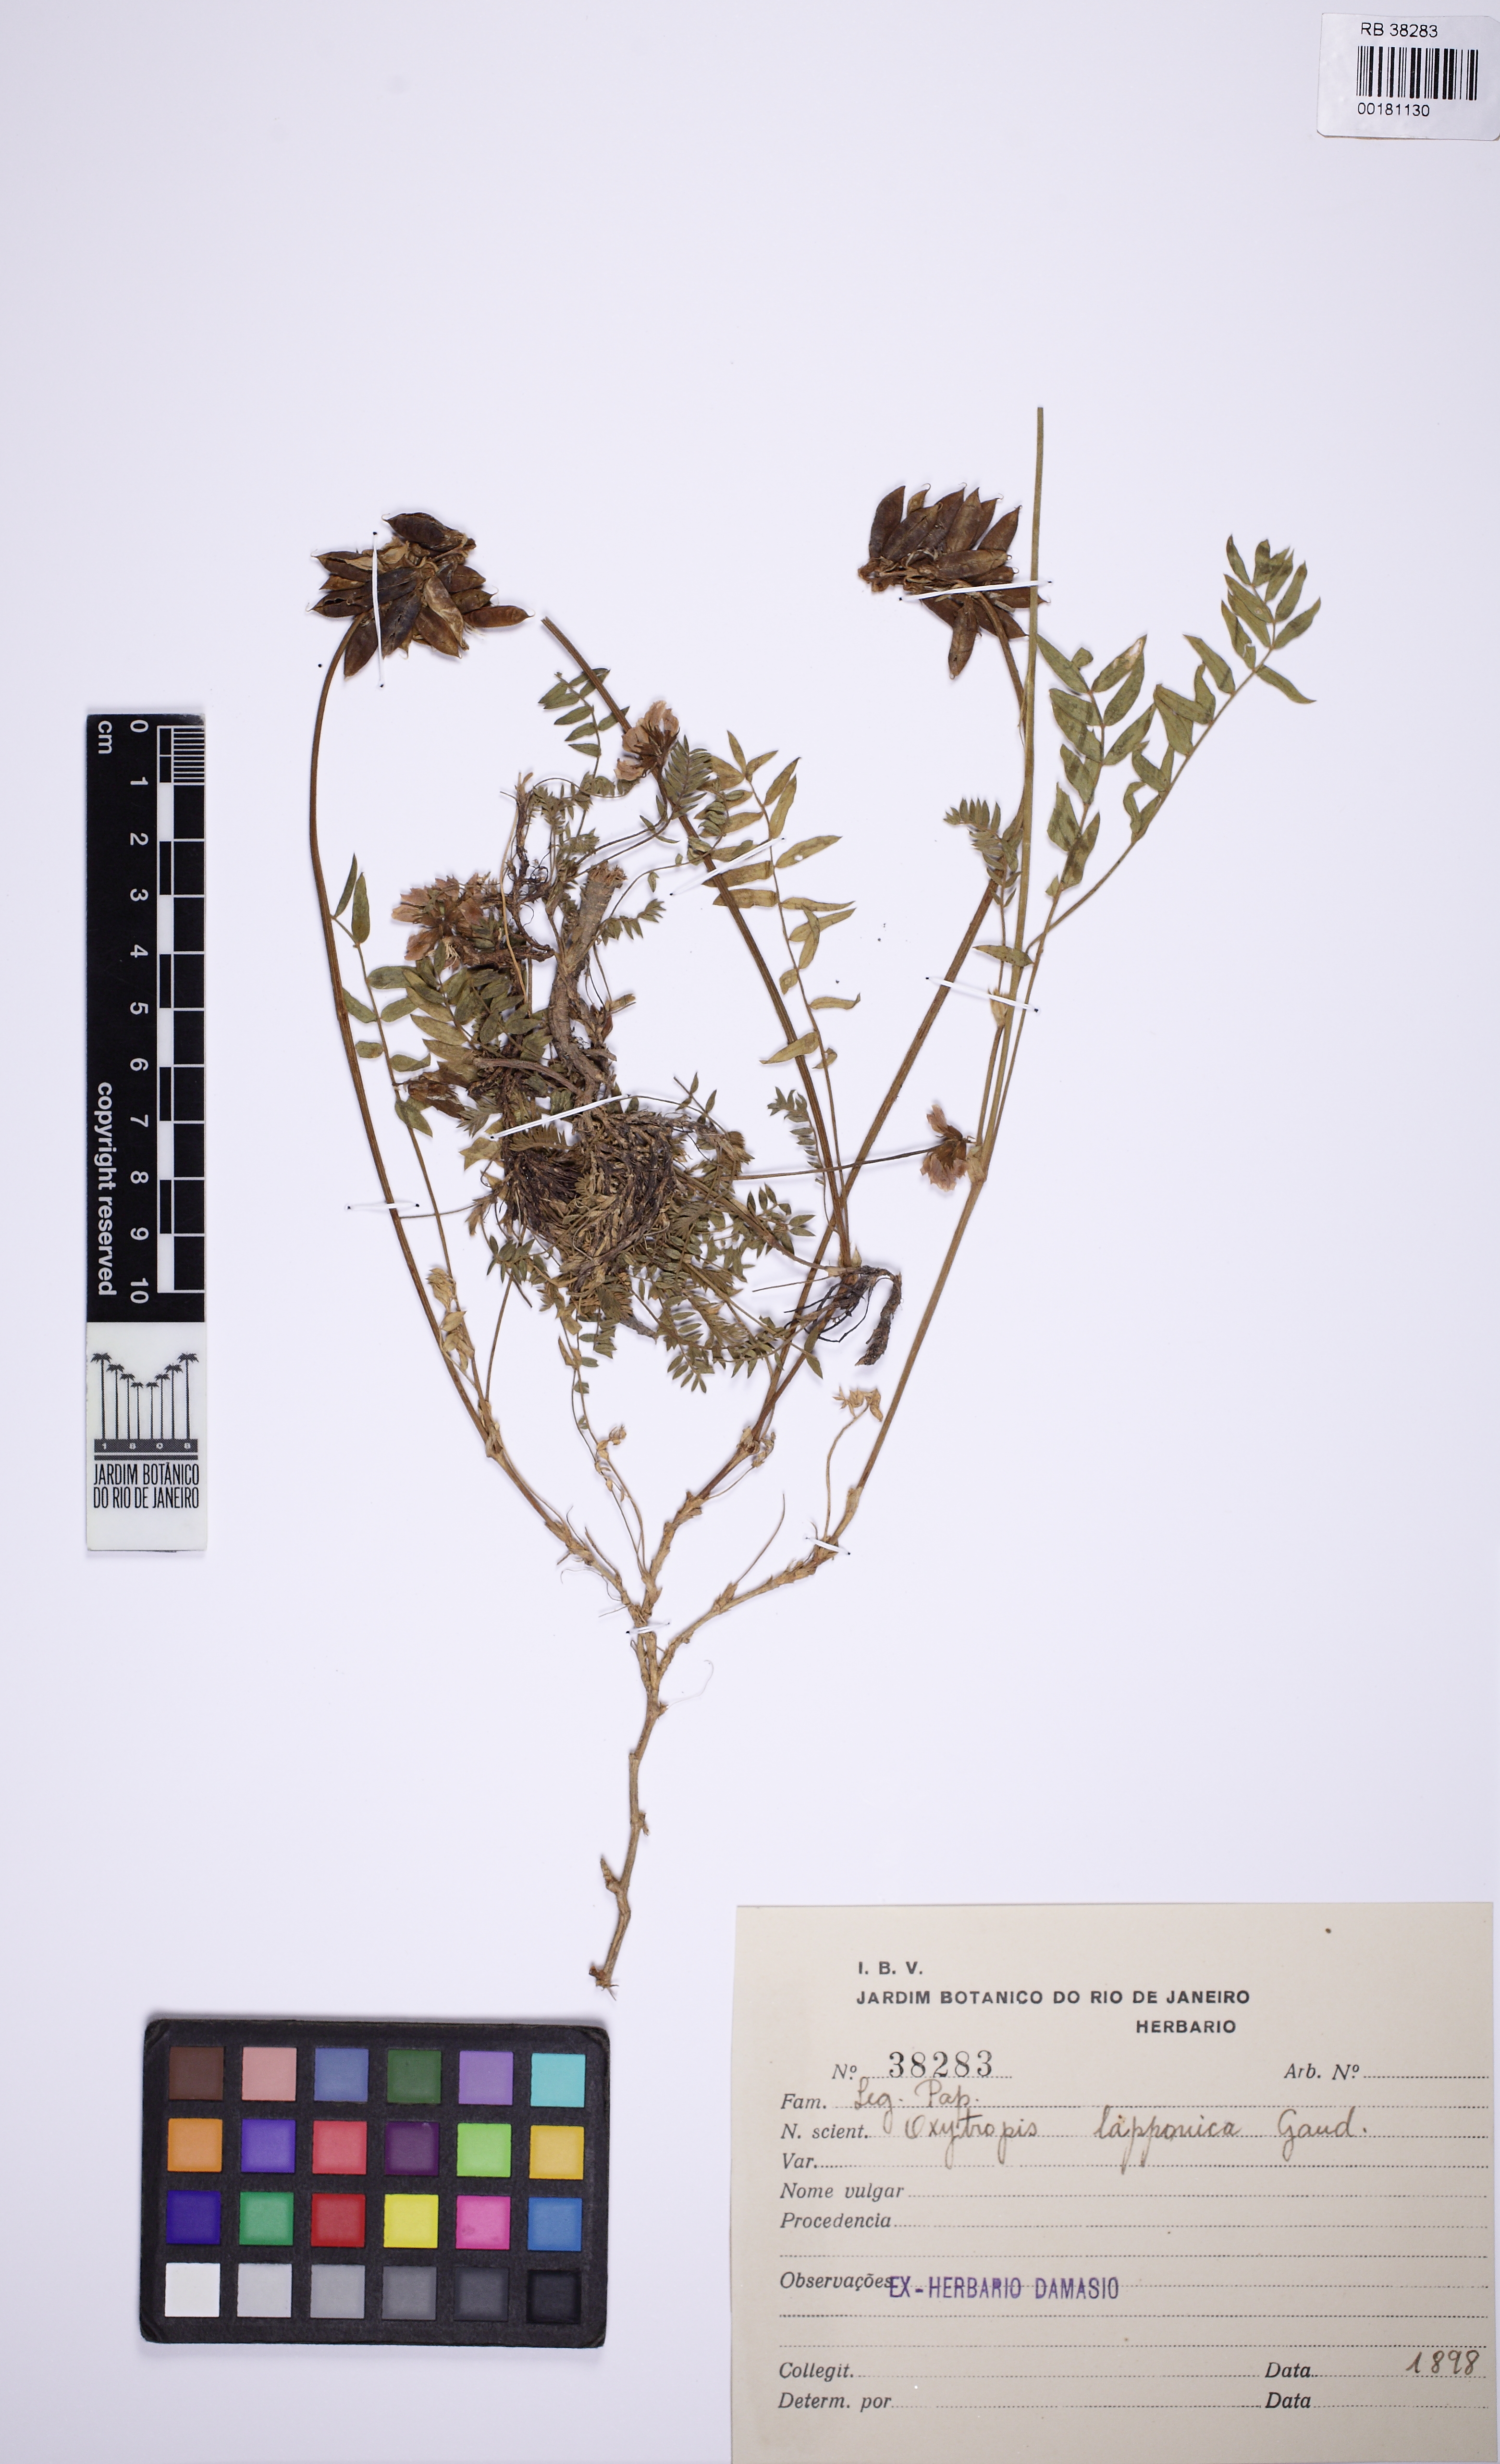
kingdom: Plantae
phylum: Tracheophyta
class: Magnoliopsida
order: Fabales
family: Fabaceae
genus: Oxytropis
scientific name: Oxytropis lapponica
